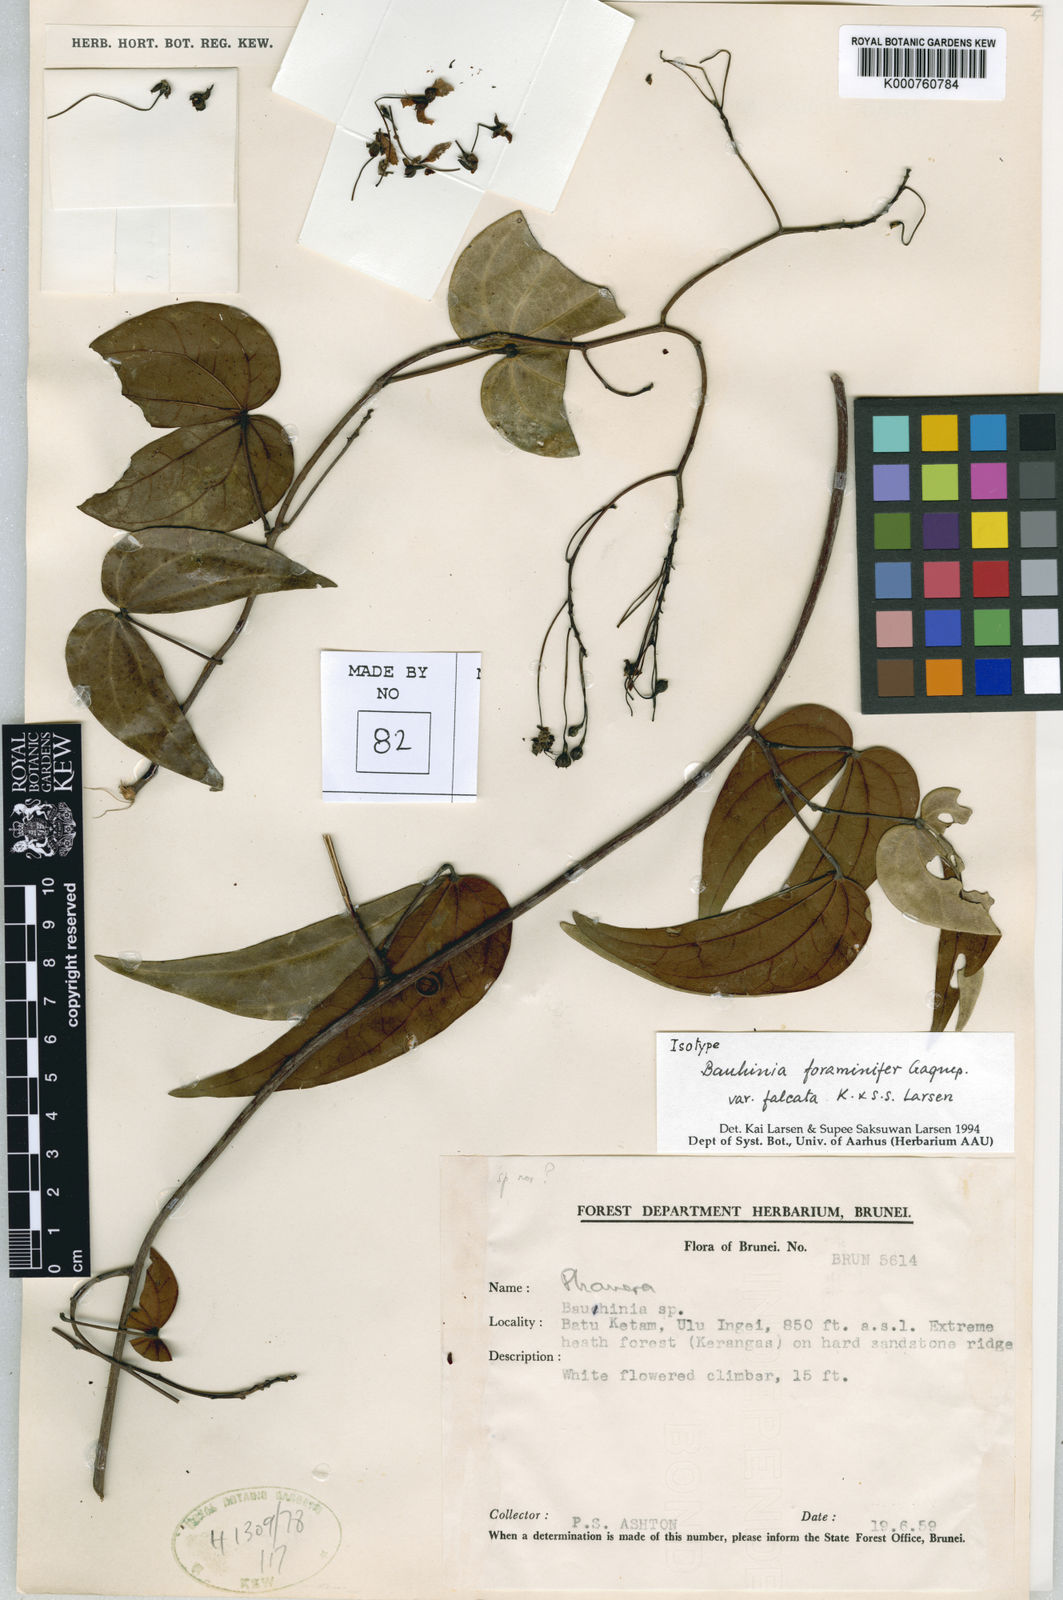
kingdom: Plantae
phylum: Tracheophyta
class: Magnoliopsida
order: Fabales
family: Fabaceae
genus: Bauhinia
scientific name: Bauhinia
